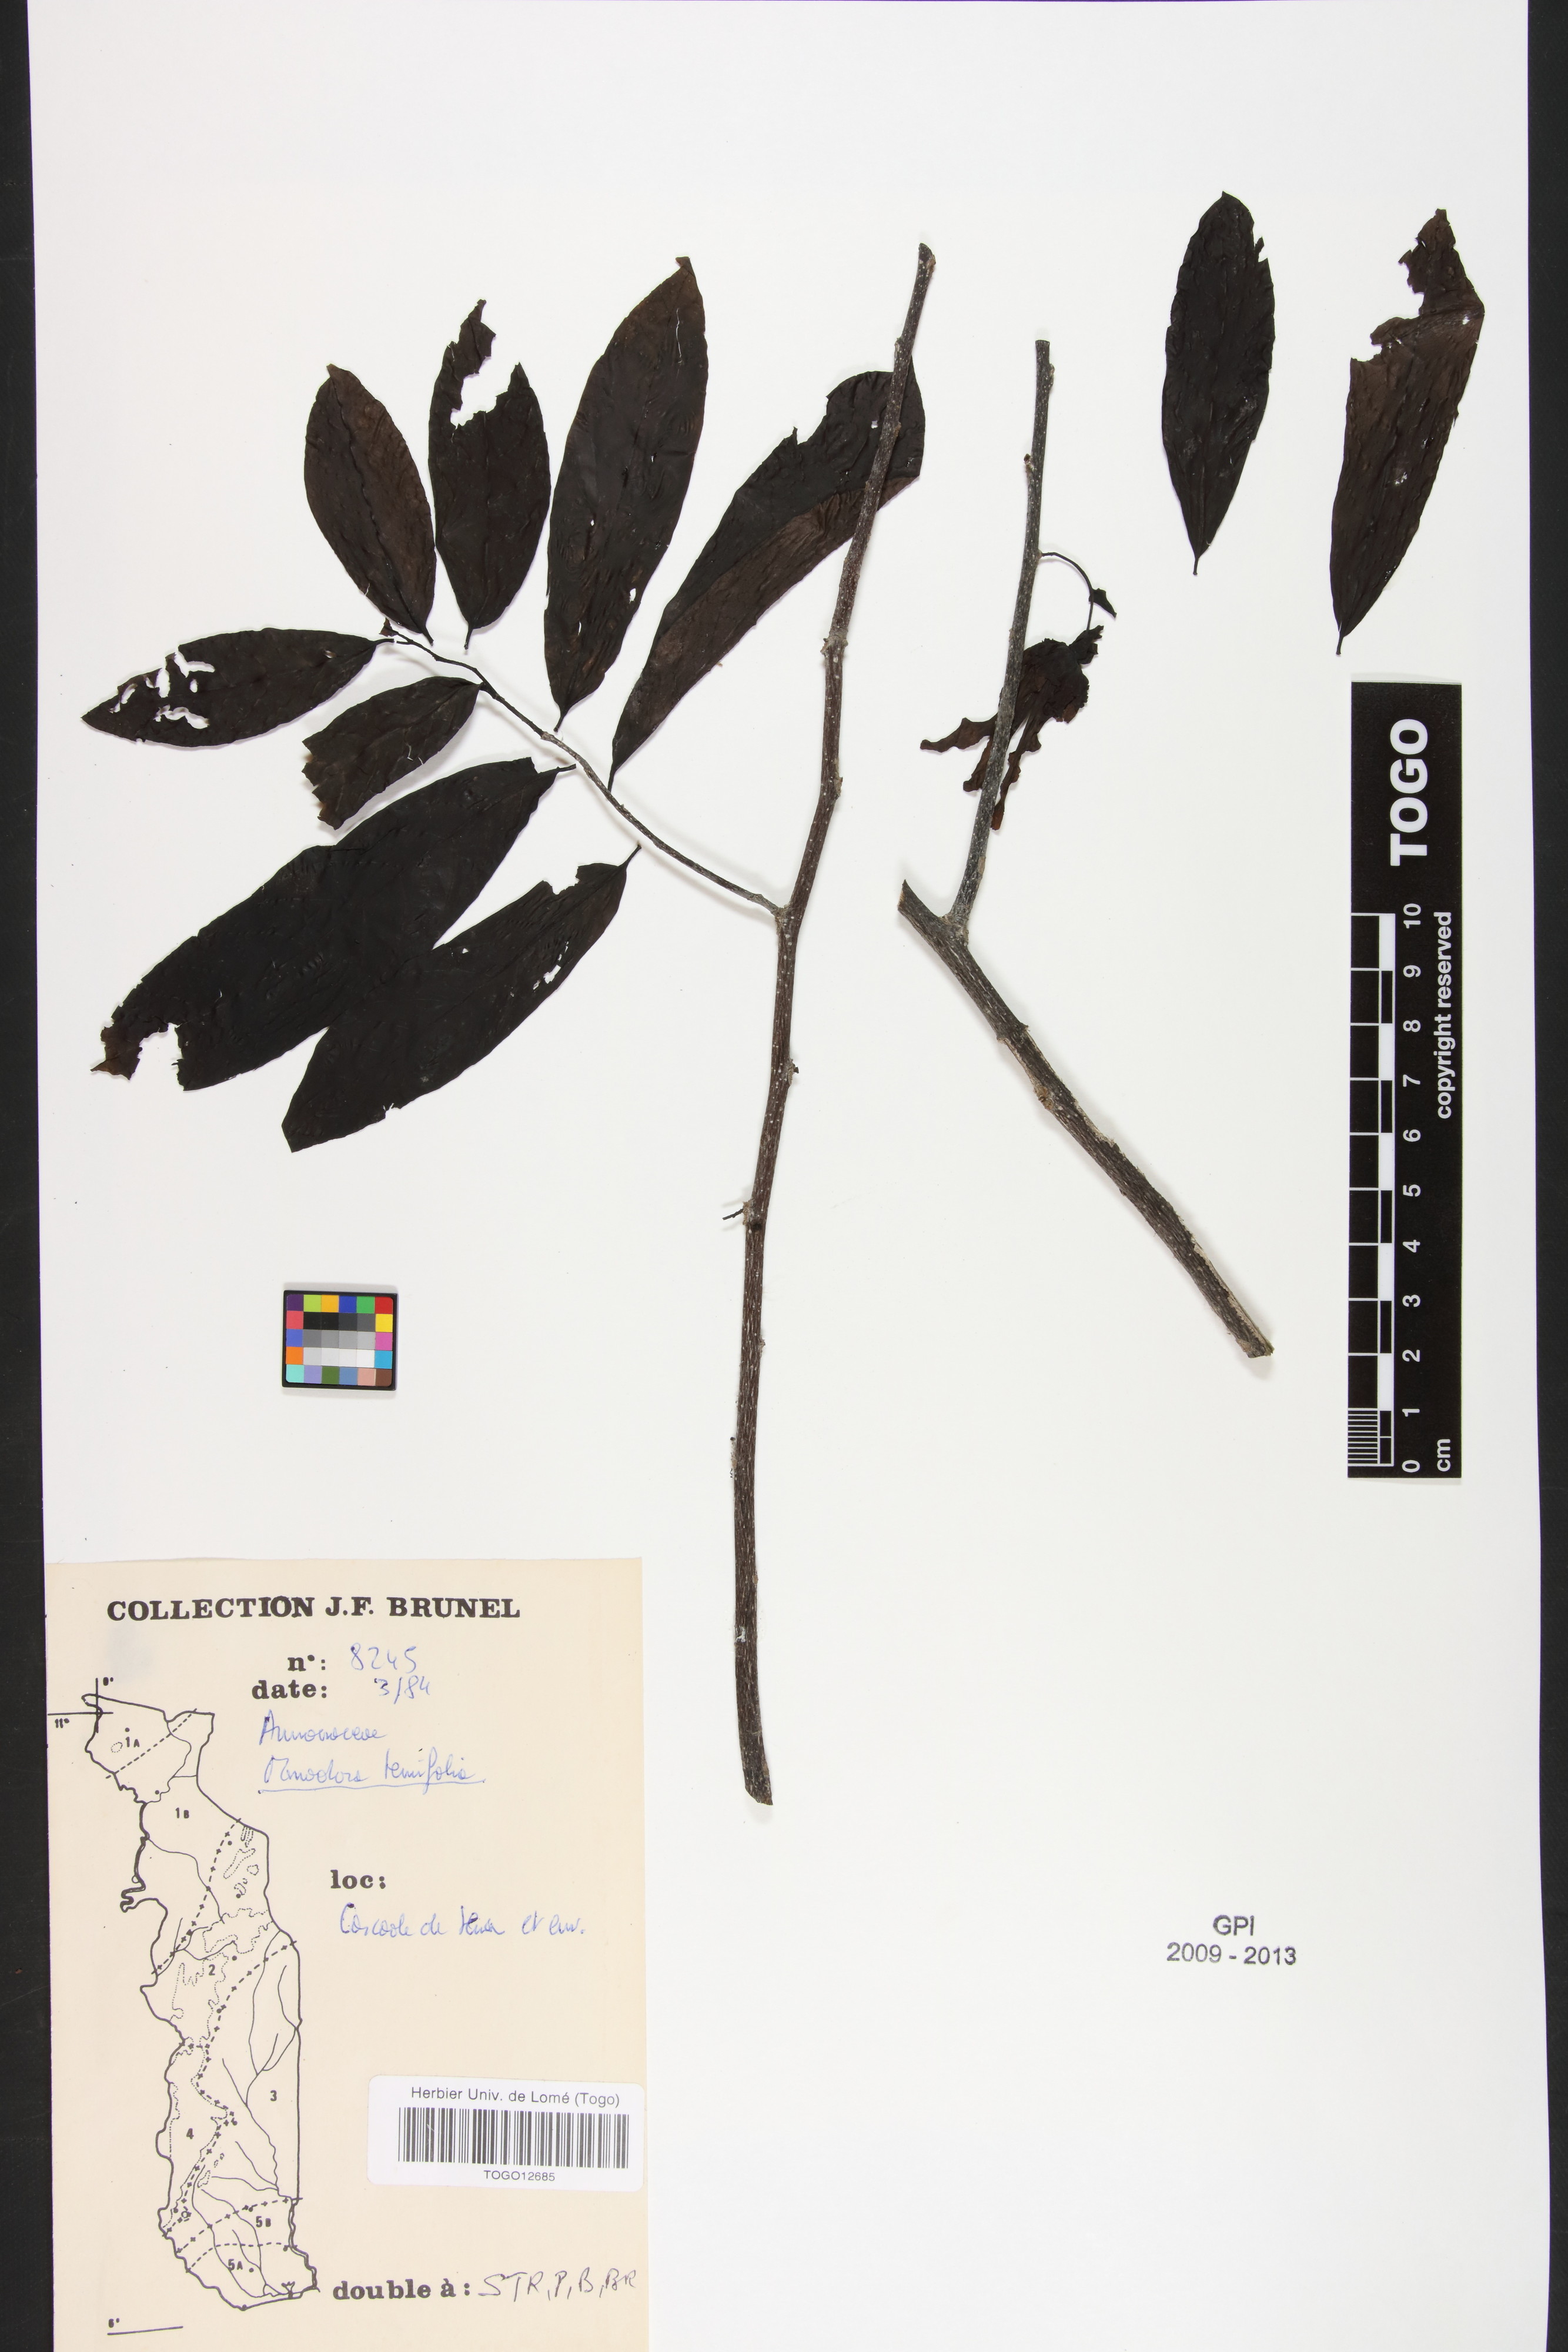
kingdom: Plantae
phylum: Tracheophyta
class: Magnoliopsida
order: Magnoliales
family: Annonaceae
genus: Monodora
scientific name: Monodora tenuifolia
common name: Orchidtree
